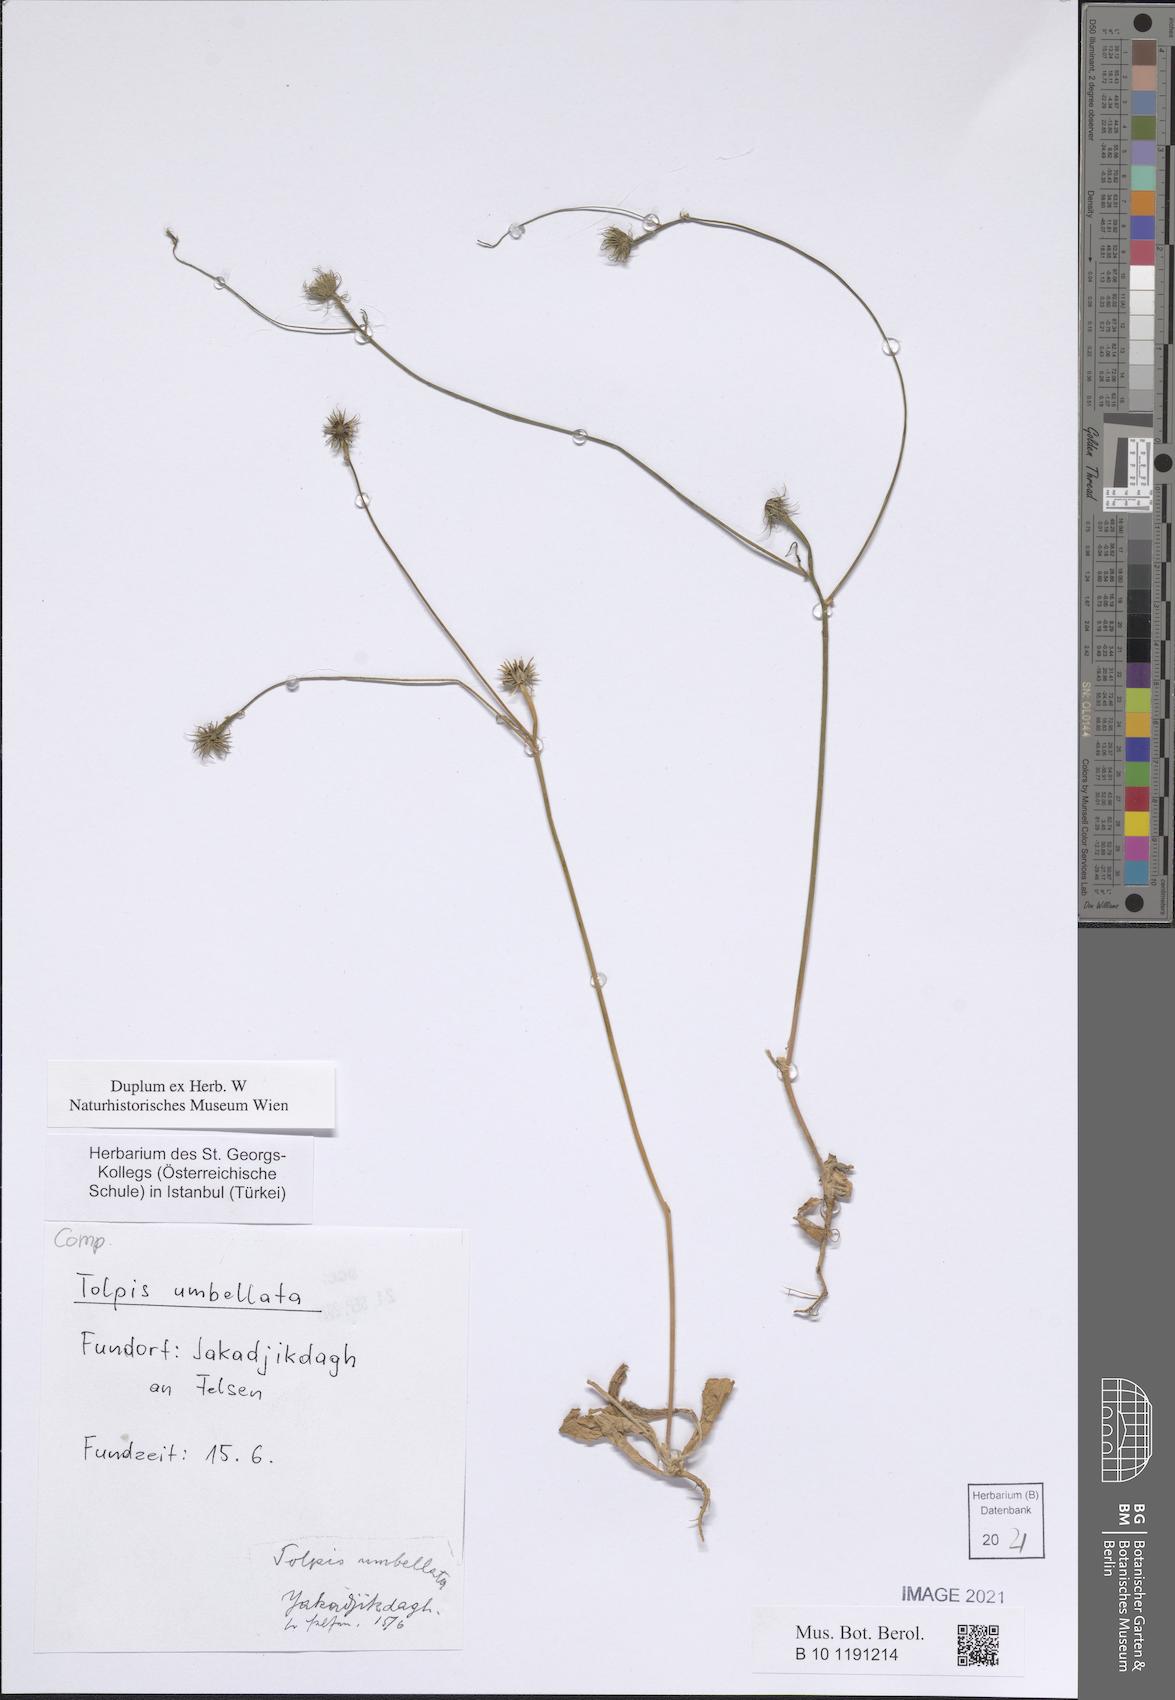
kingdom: Plantae
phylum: Tracheophyta
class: Magnoliopsida
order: Asterales
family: Asteraceae
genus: Tolpis
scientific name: Tolpis umbellata
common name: Yellow hawkweed
